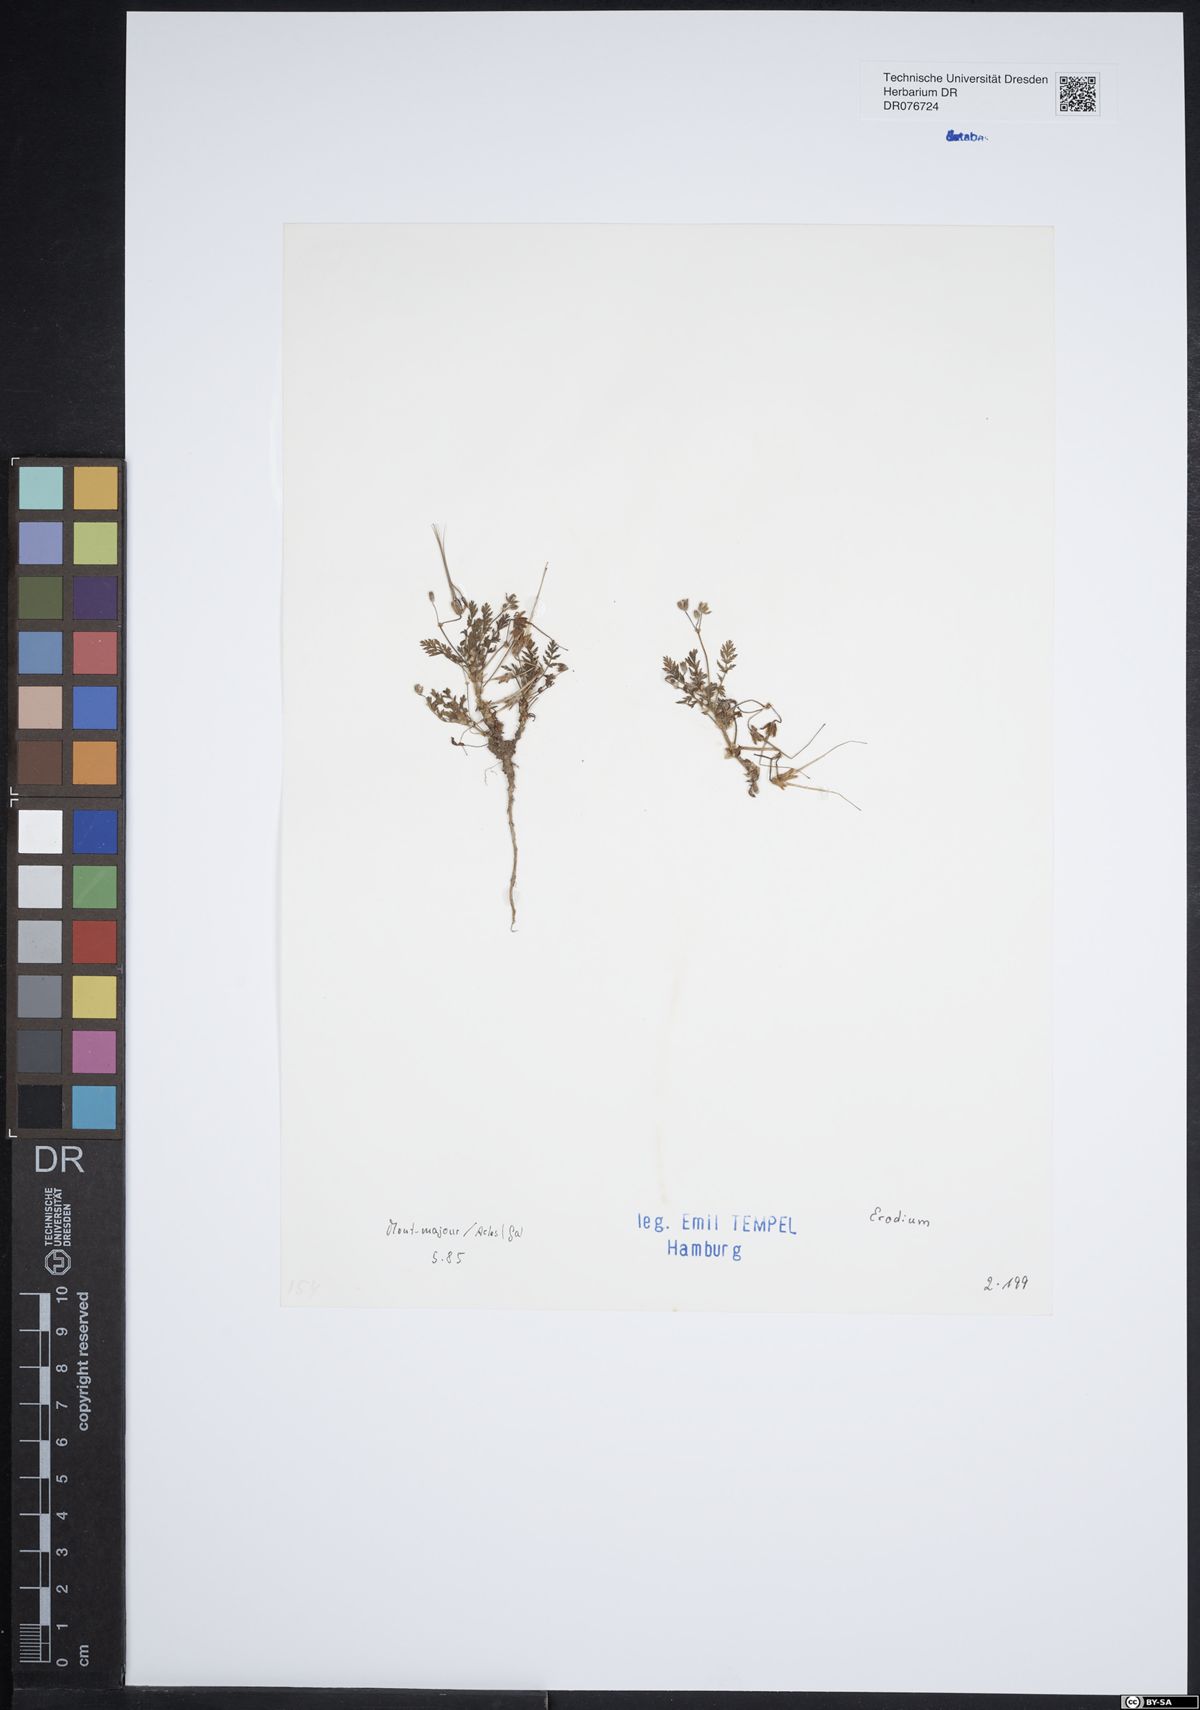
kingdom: Plantae
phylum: Tracheophyta
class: Magnoliopsida
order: Geraniales
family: Geraniaceae
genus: Erodium
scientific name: Erodium
